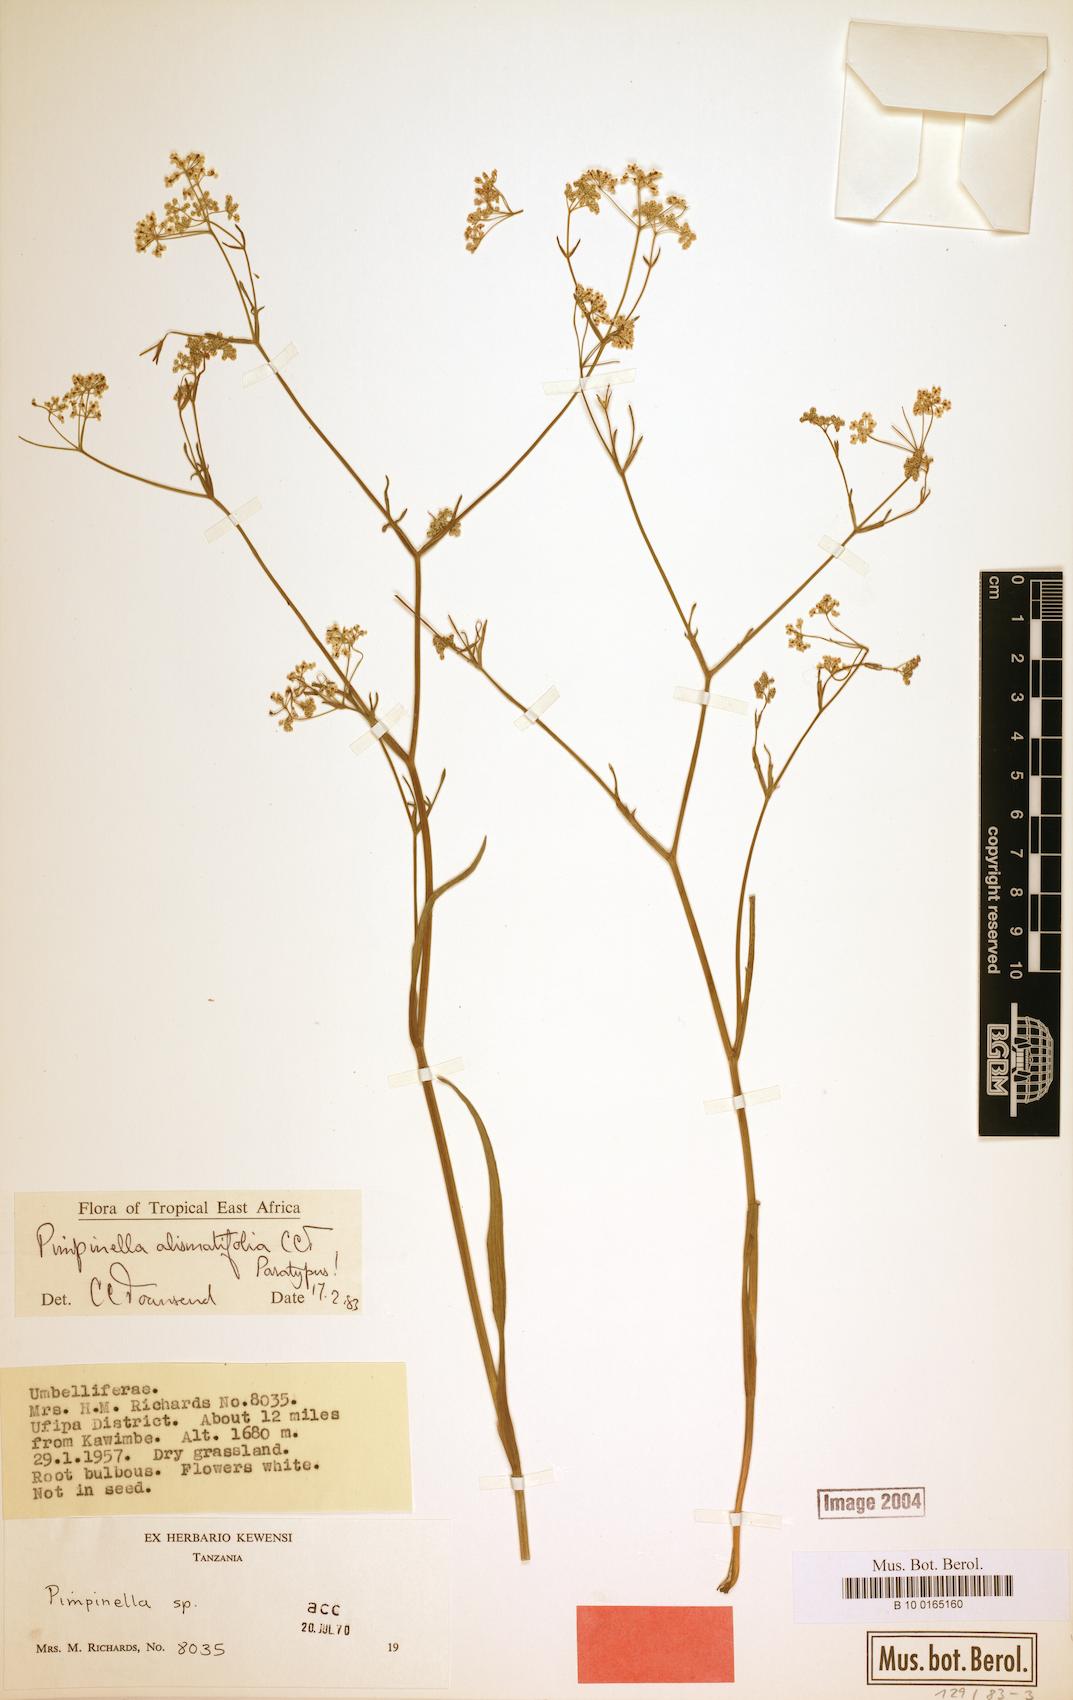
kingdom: Plantae
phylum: Tracheophyta
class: Magnoliopsida
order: Apiales
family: Apiaceae
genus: Pimpinella
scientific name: Pimpinella alismatifolia
